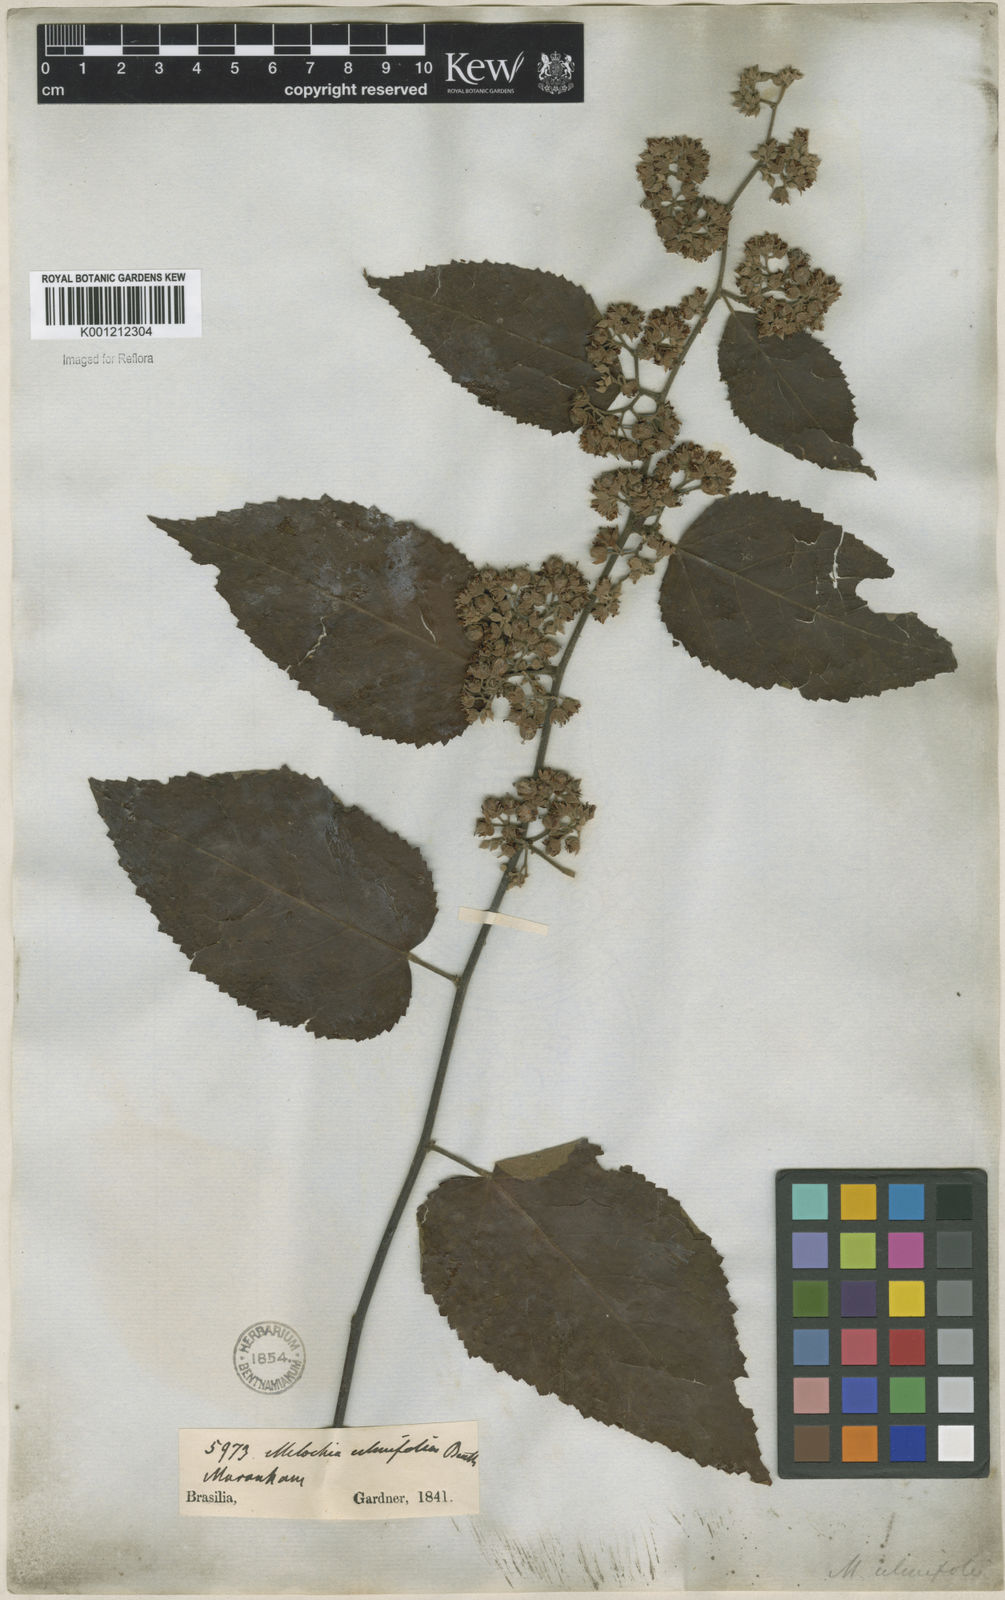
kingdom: Plantae
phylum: Tracheophyta
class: Magnoliopsida
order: Malvales
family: Malvaceae
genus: Melochia
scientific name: Melochia ulmifolia
